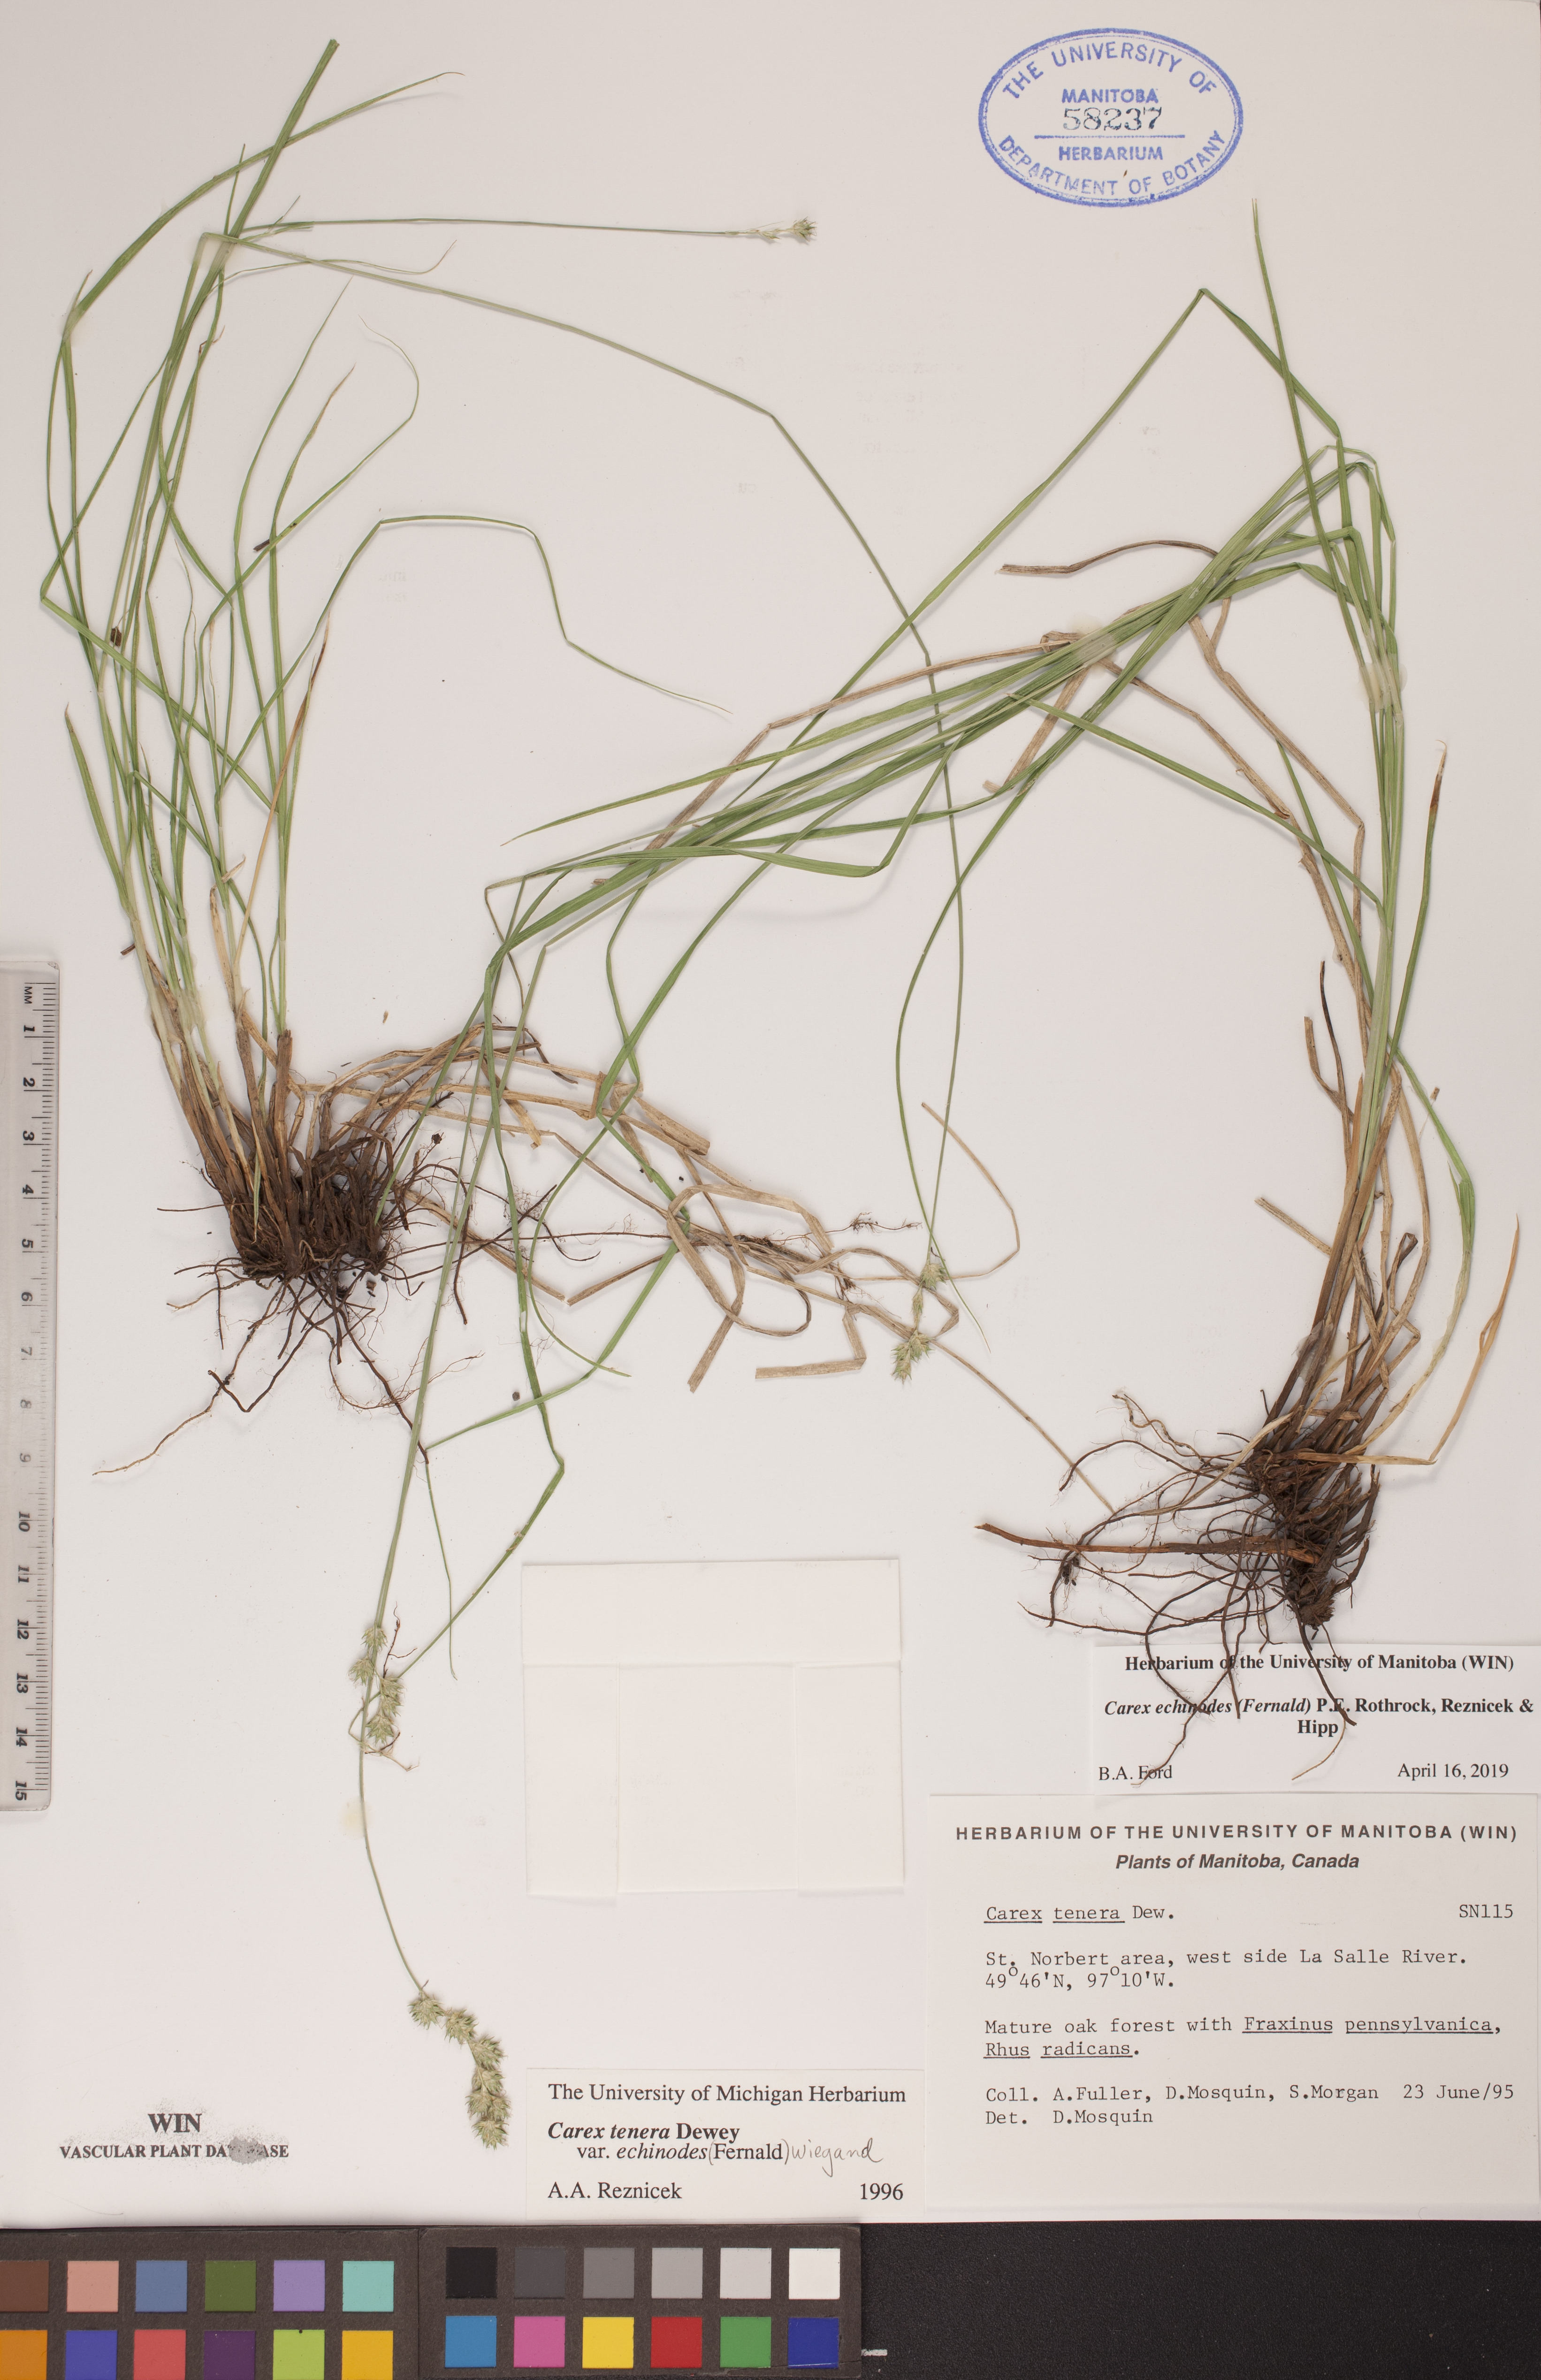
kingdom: Plantae
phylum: Tracheophyta
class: Liliopsida
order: Poales
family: Cyperaceae
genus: Carex
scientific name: Carex echinodes
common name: Marsh straw sedge
